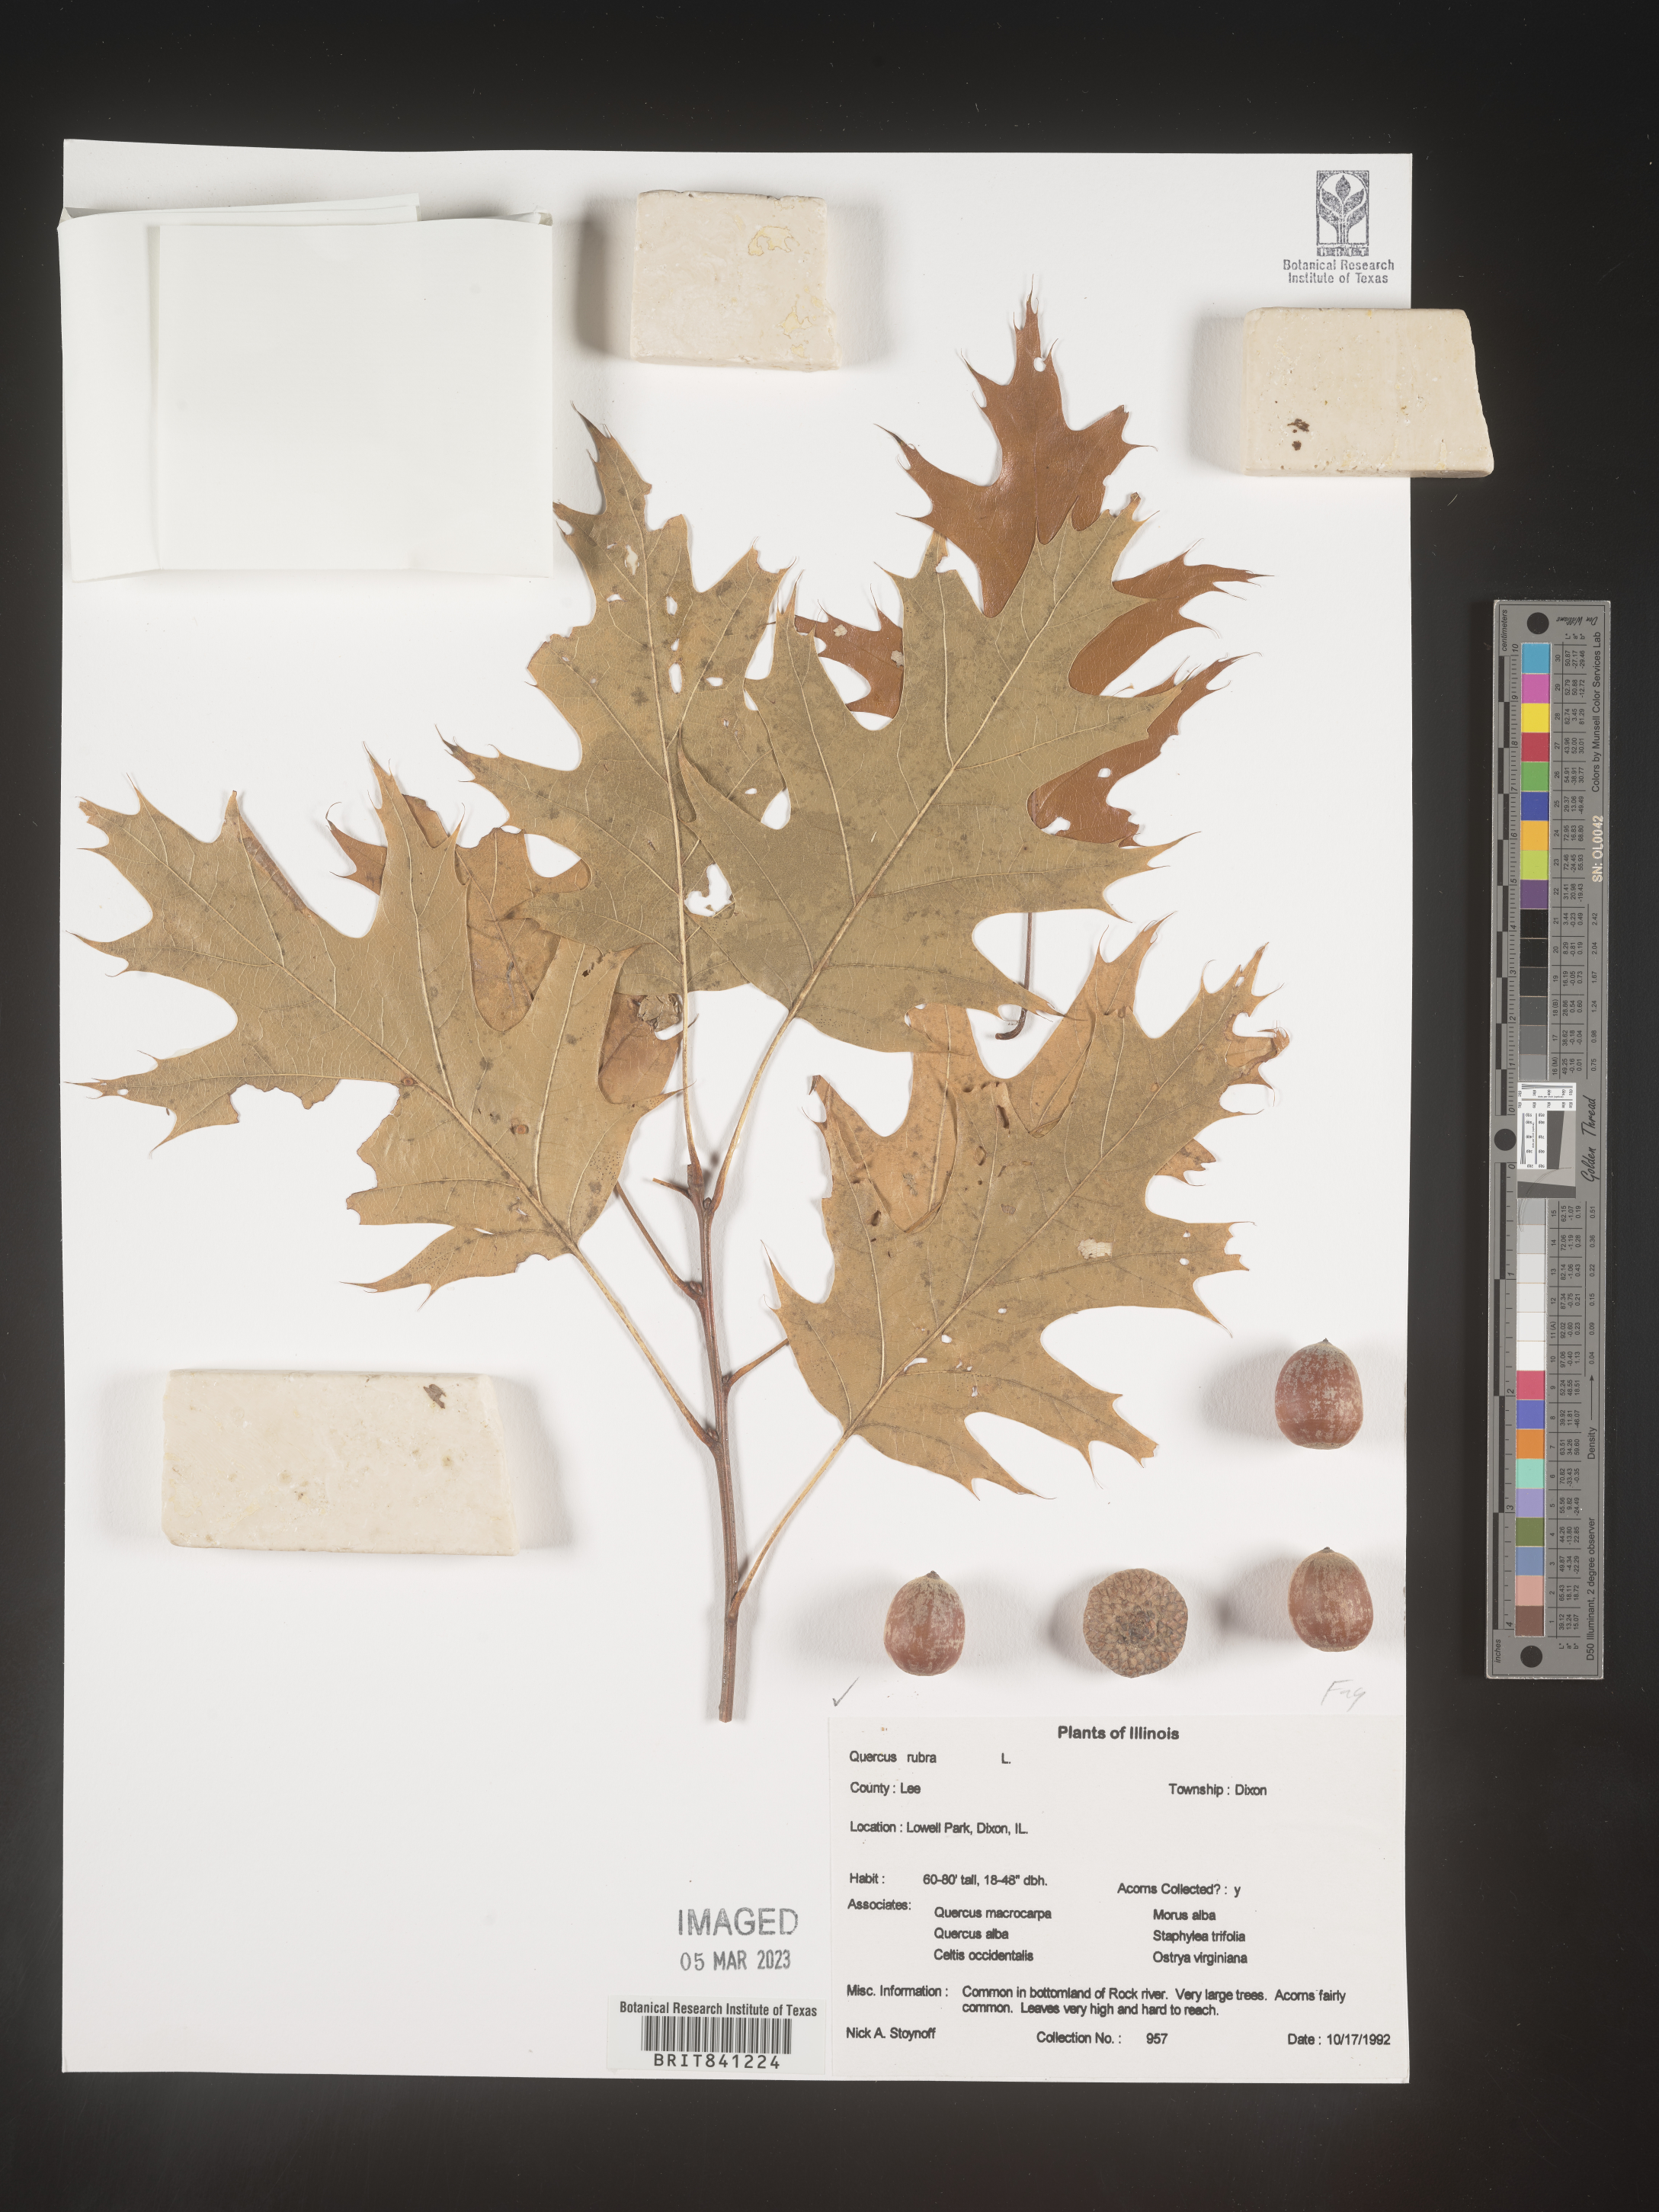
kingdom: Plantae
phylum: Tracheophyta
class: Magnoliopsida
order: Fagales
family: Fagaceae
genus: Quercus
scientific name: Quercus rubra
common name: Red oak
